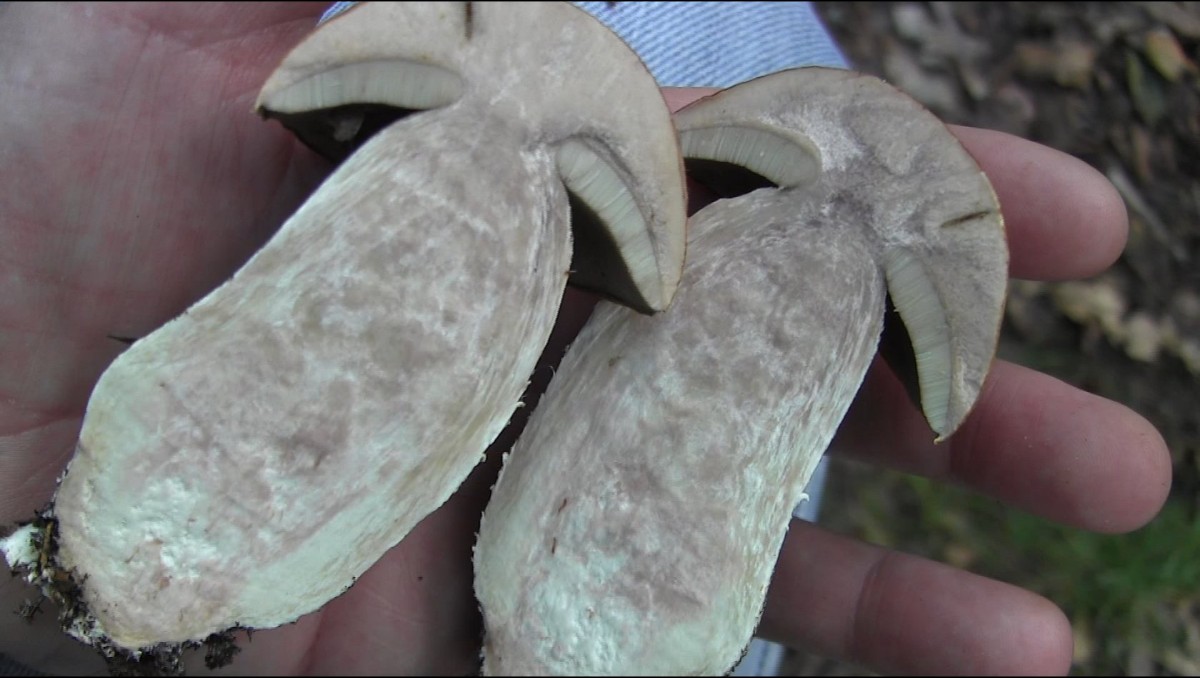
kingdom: Fungi
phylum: Basidiomycota
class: Agaricomycetes
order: Boletales
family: Boletaceae
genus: Leccinum
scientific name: Leccinum versipelle
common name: orange skælrørhat
